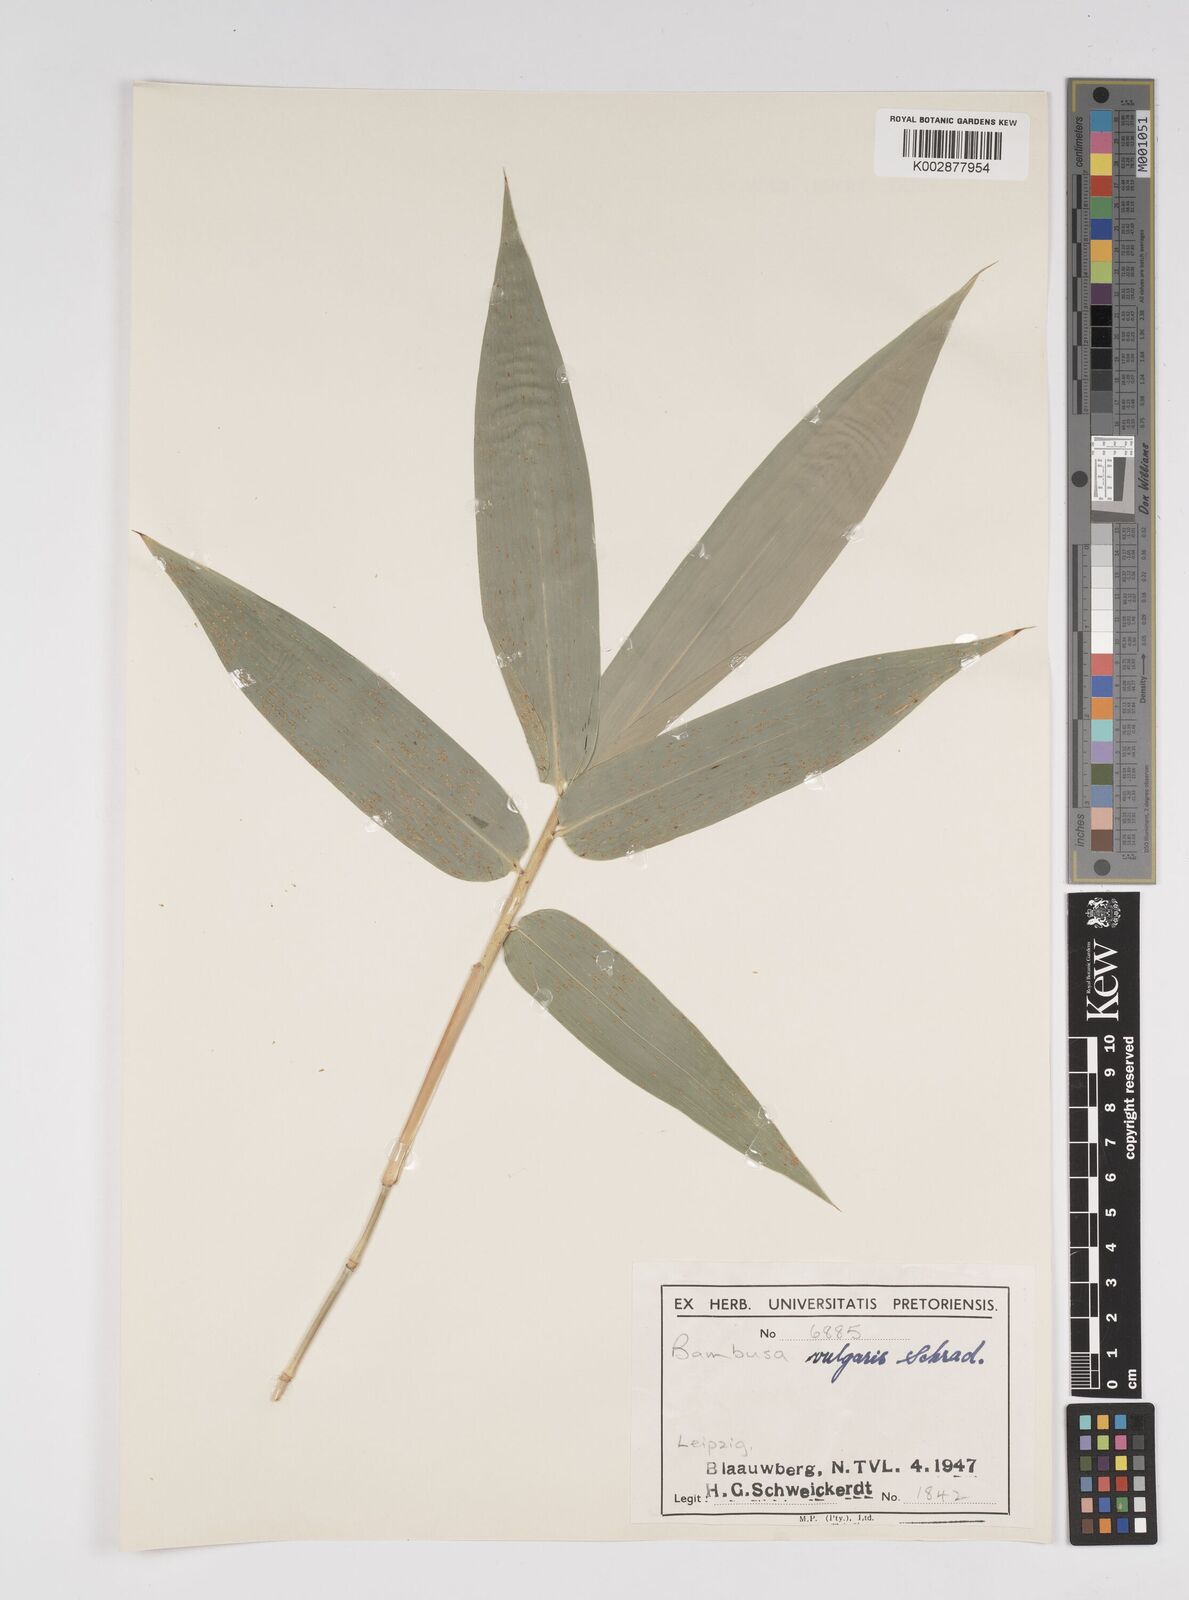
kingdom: Plantae
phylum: Tracheophyta
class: Liliopsida
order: Poales
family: Poaceae
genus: Bambusa
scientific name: Bambusa vulgaris
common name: Common bamboo
